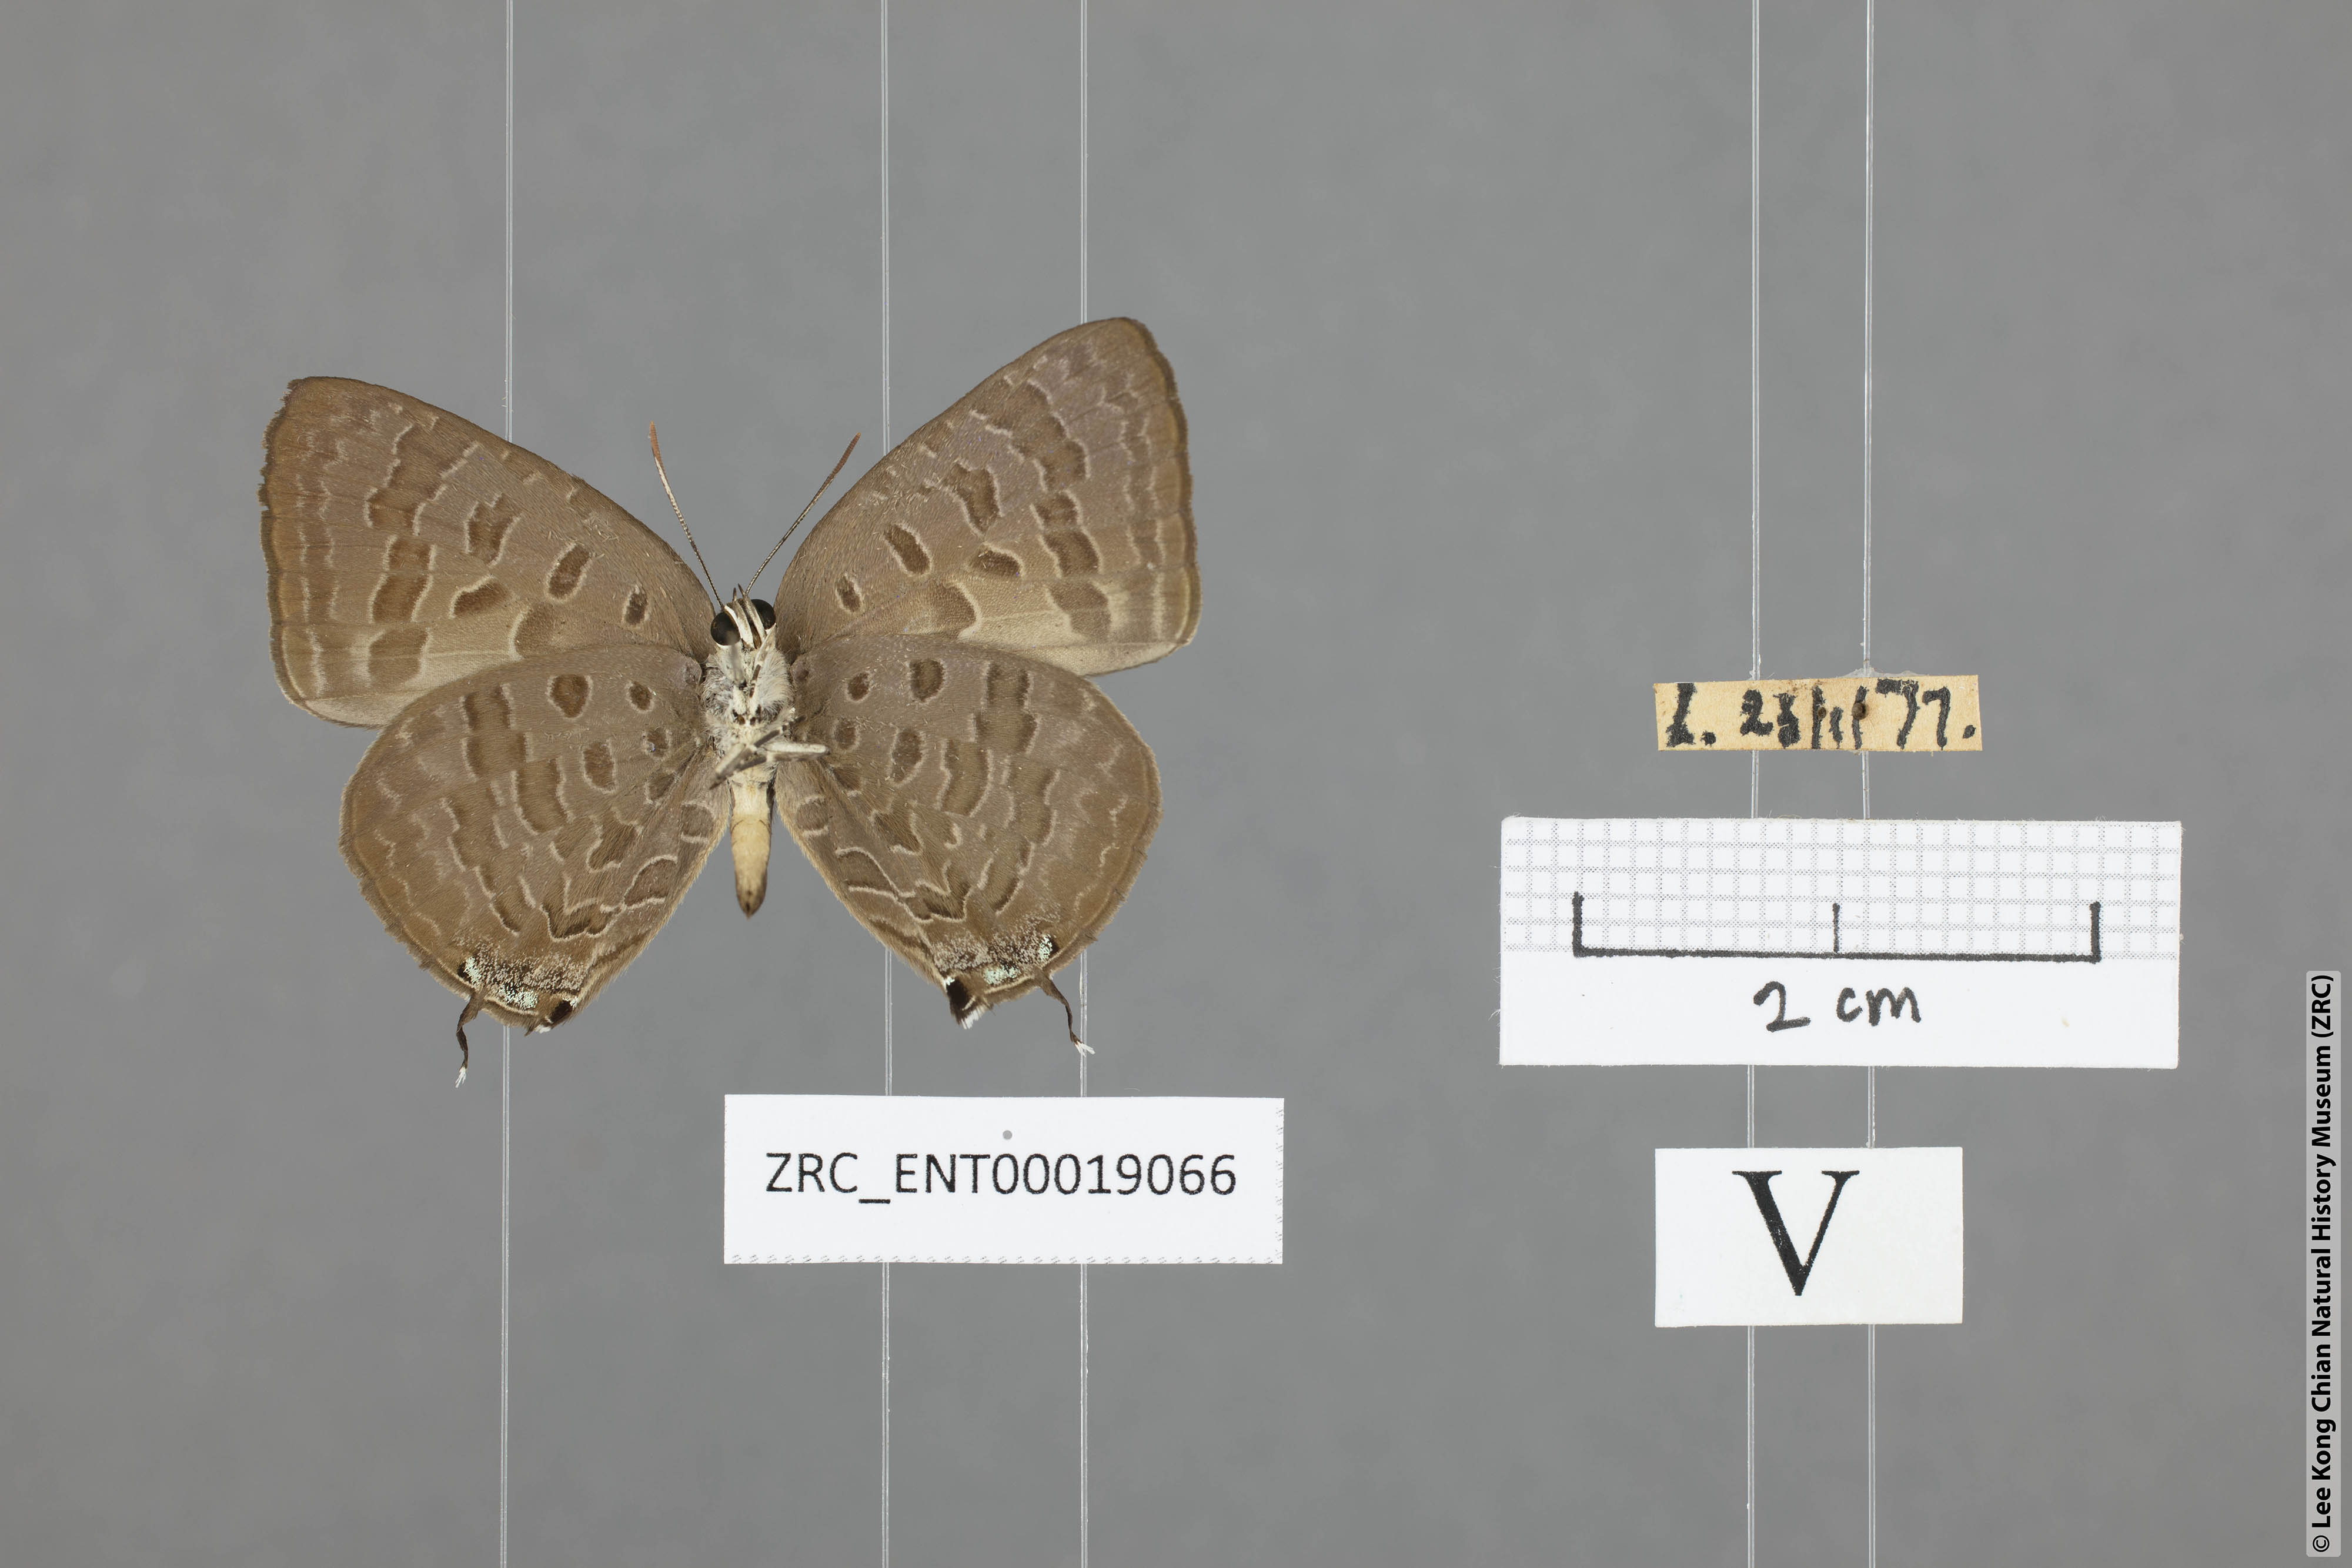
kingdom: Animalia
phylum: Arthropoda
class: Insecta
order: Lepidoptera
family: Lycaenidae
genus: Arhopala
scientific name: Arhopala aida
